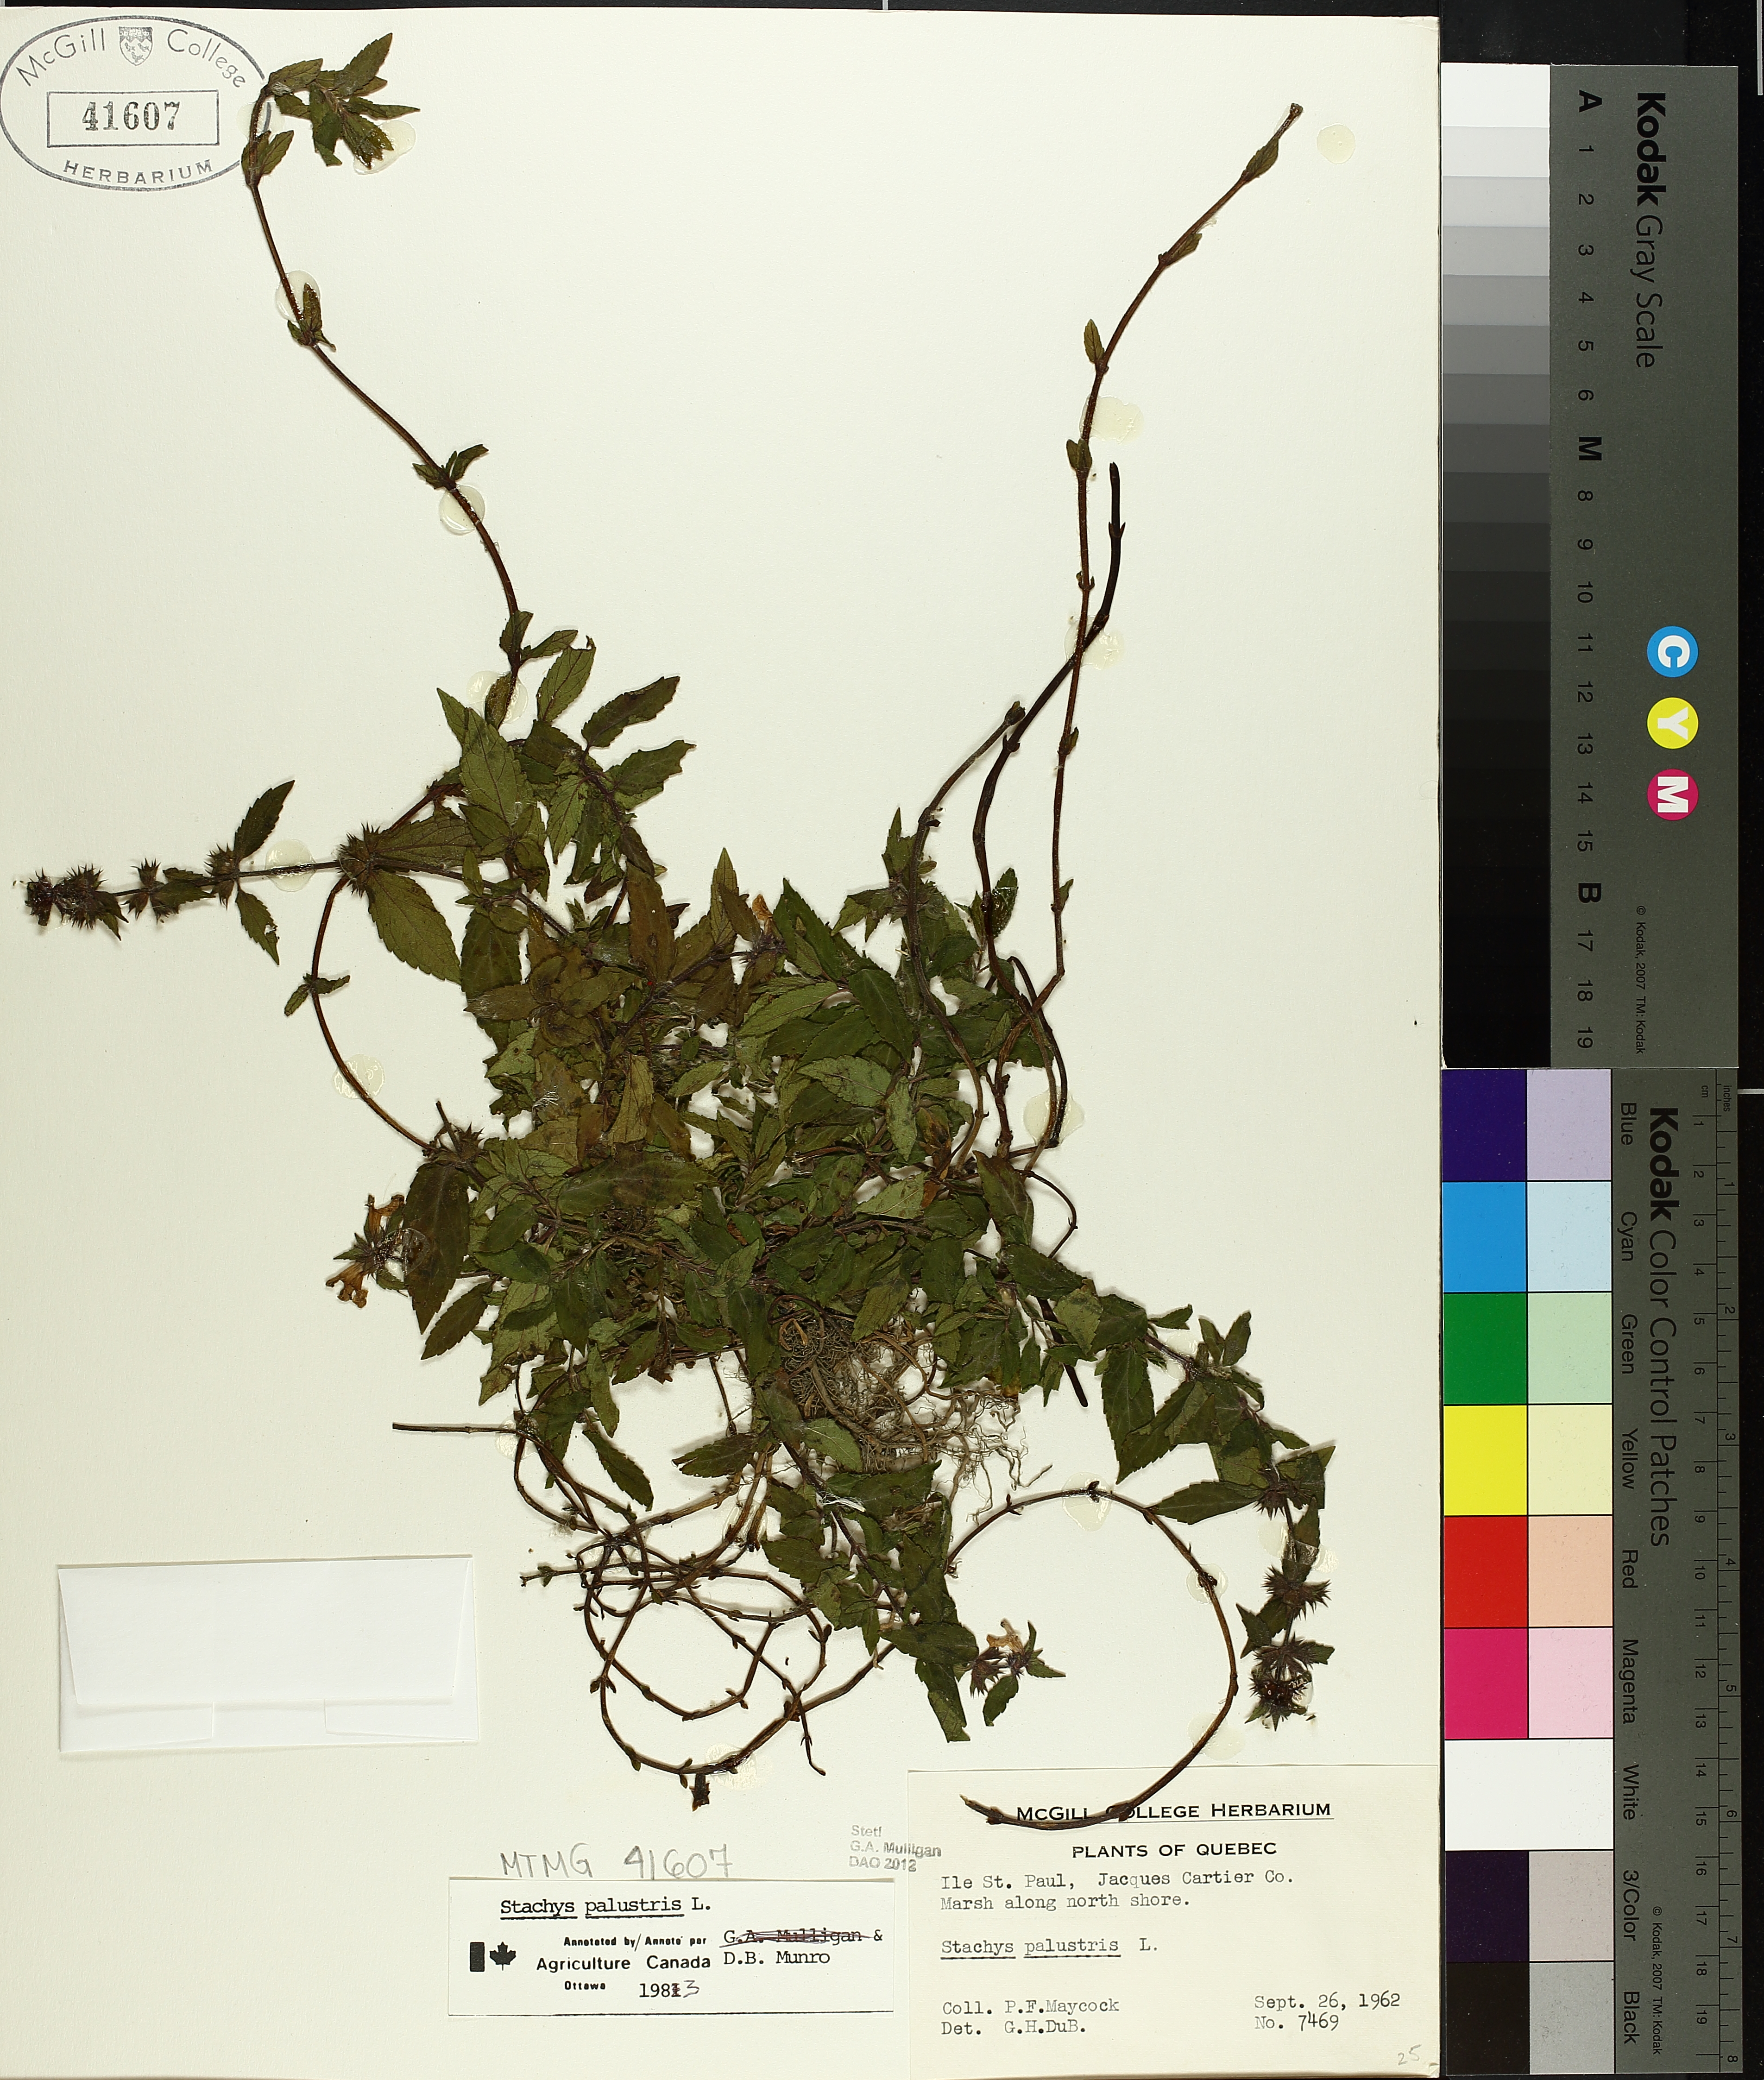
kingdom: Plantae
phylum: Tracheophyta
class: Magnoliopsida
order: Lamiales
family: Lamiaceae
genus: Stachys
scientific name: Stachys palustris
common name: Marsh woundwort
